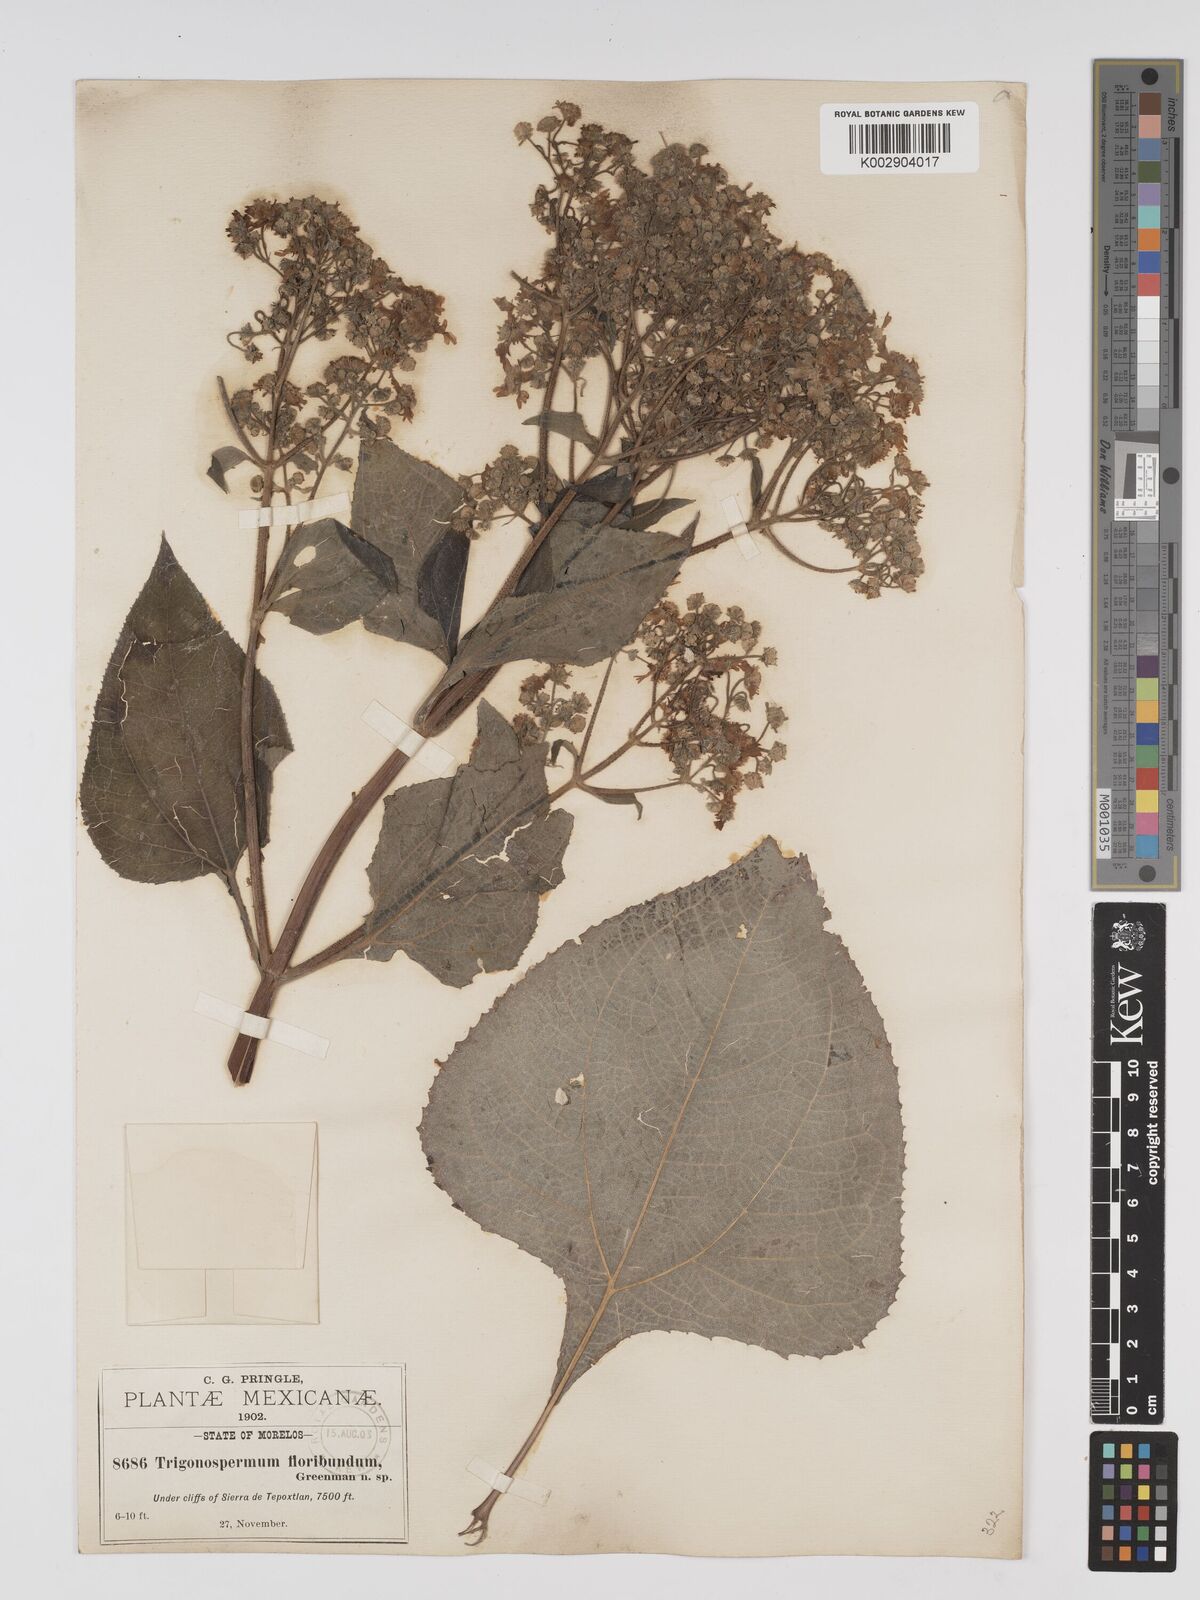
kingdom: Plantae
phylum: Tracheophyta
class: Magnoliopsida
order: Asterales
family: Asteraceae
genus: Trigonospermum
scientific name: Trigonospermum melampodioides
